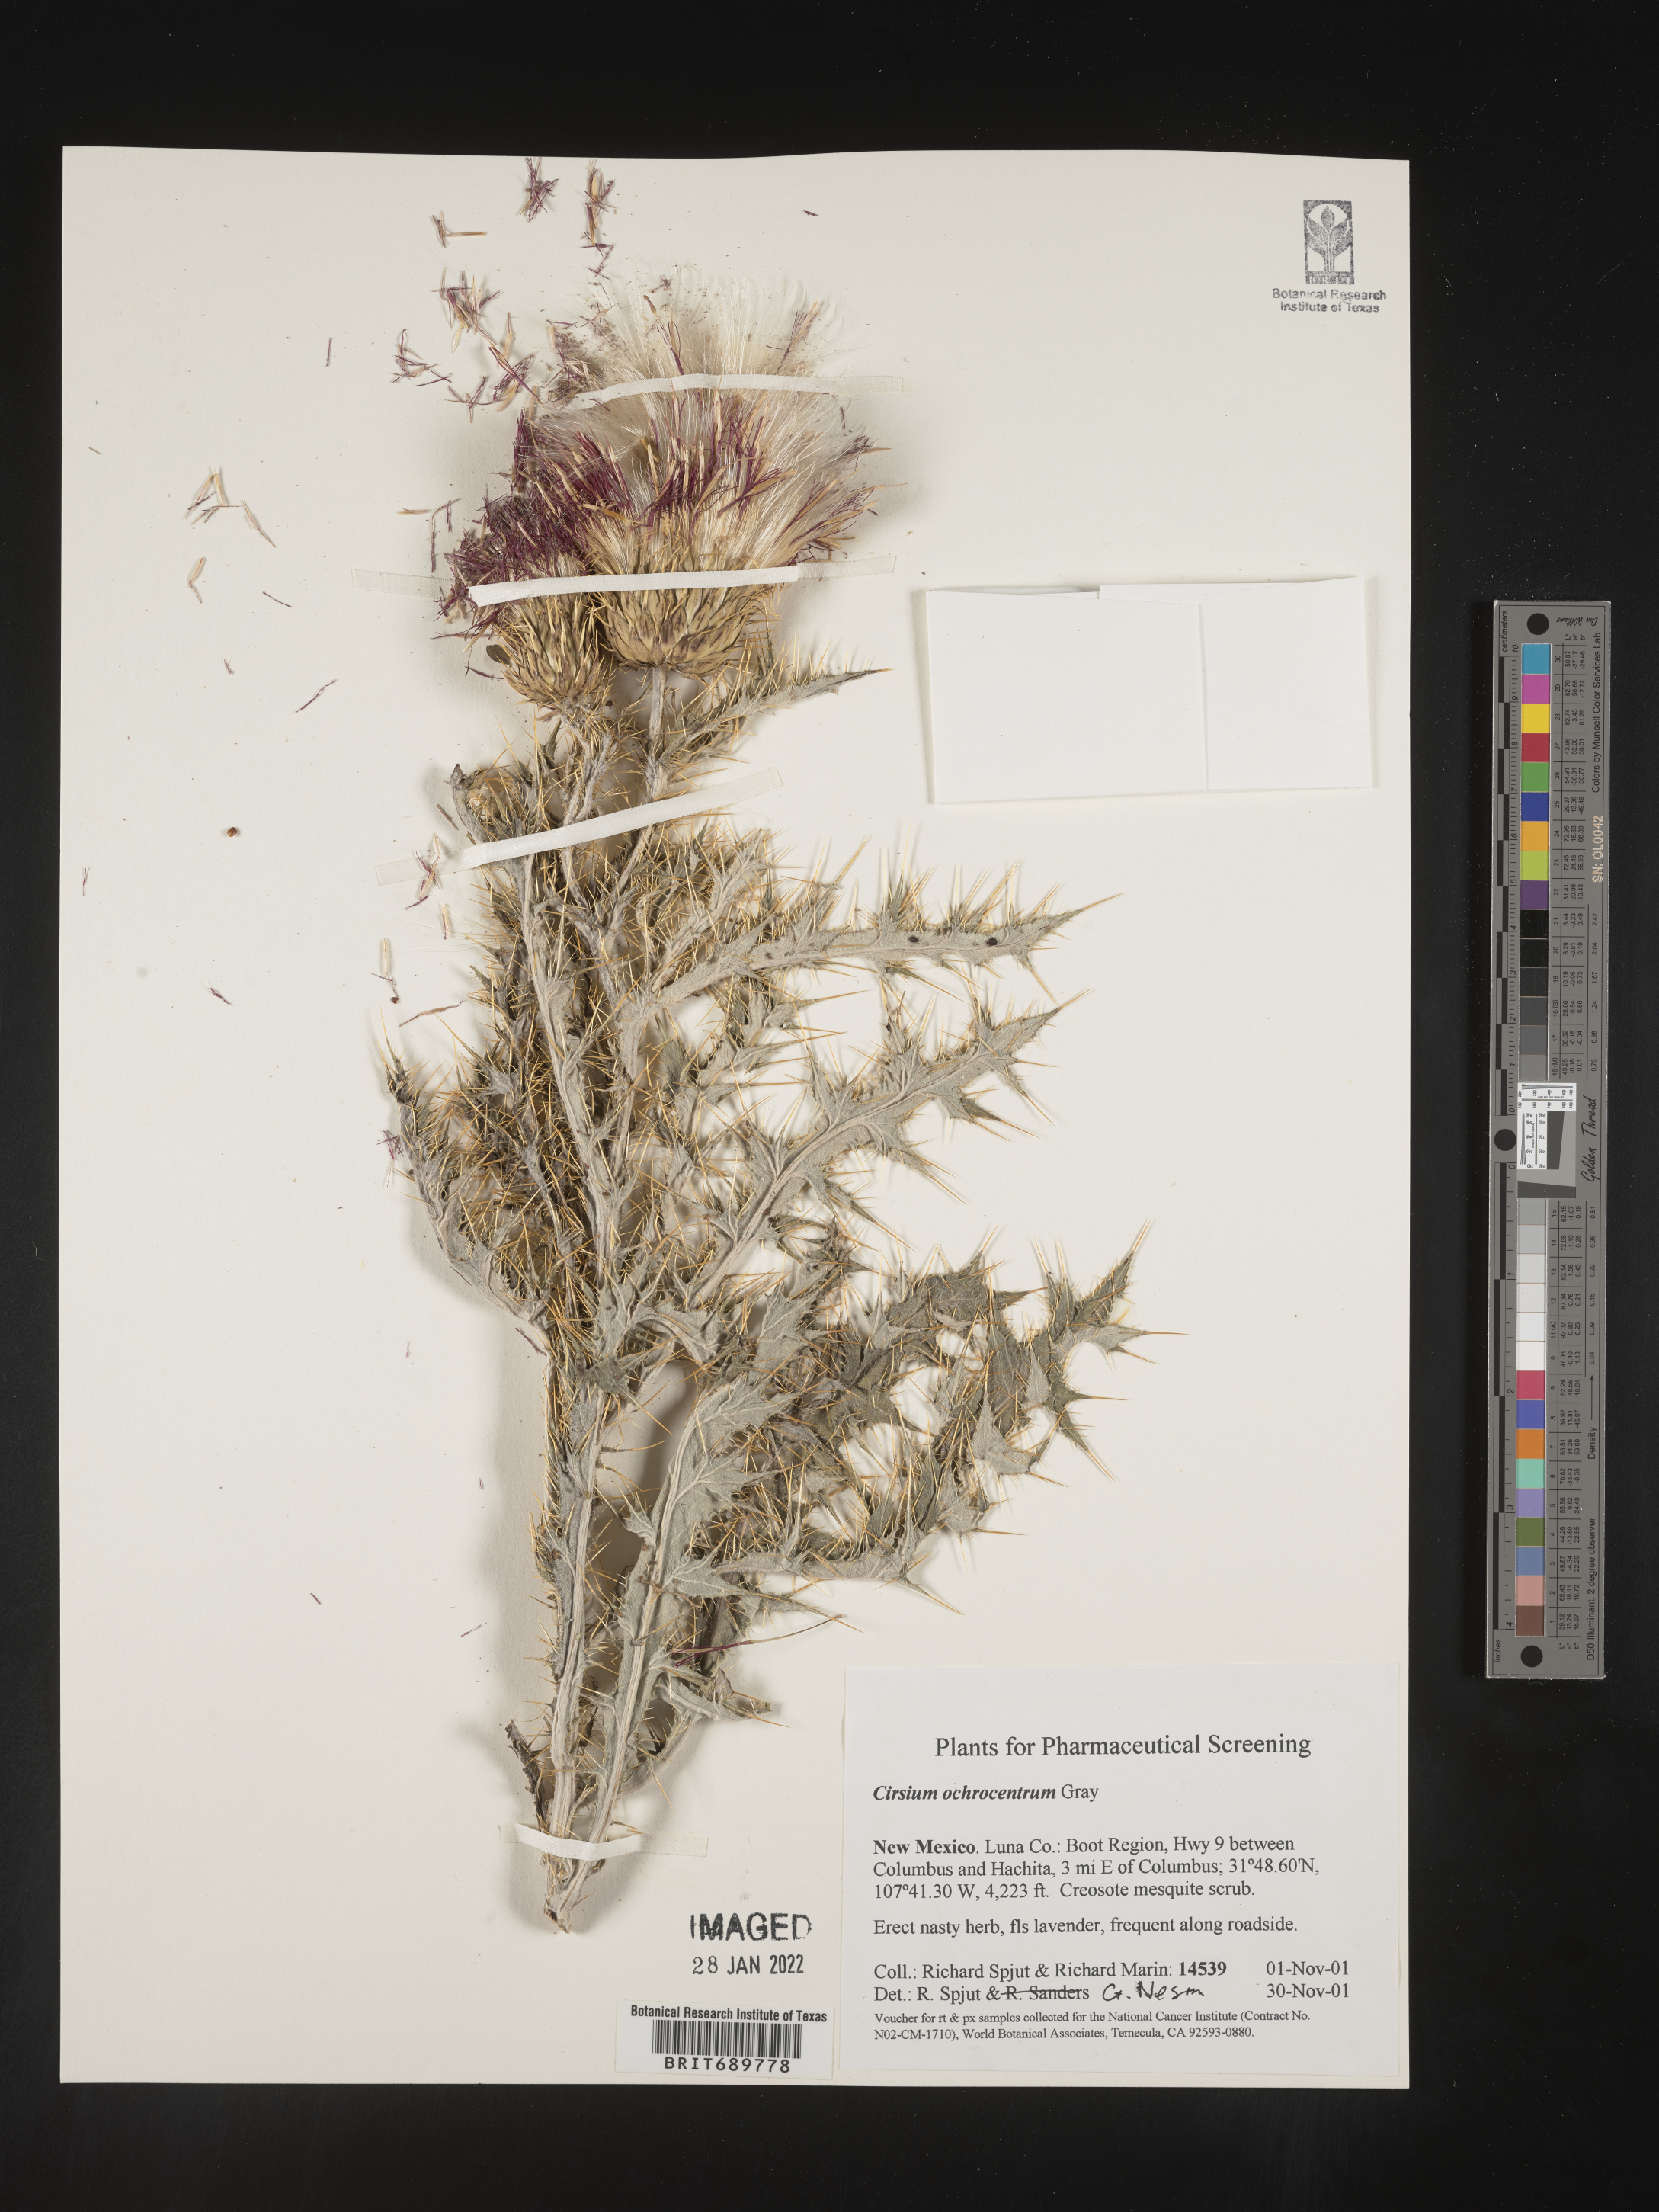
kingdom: Plantae
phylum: Tracheophyta
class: Magnoliopsida
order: Asterales
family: Asteraceae
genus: Cirsium
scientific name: Cirsium ochrocentrum
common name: Yellow-spine thistle
